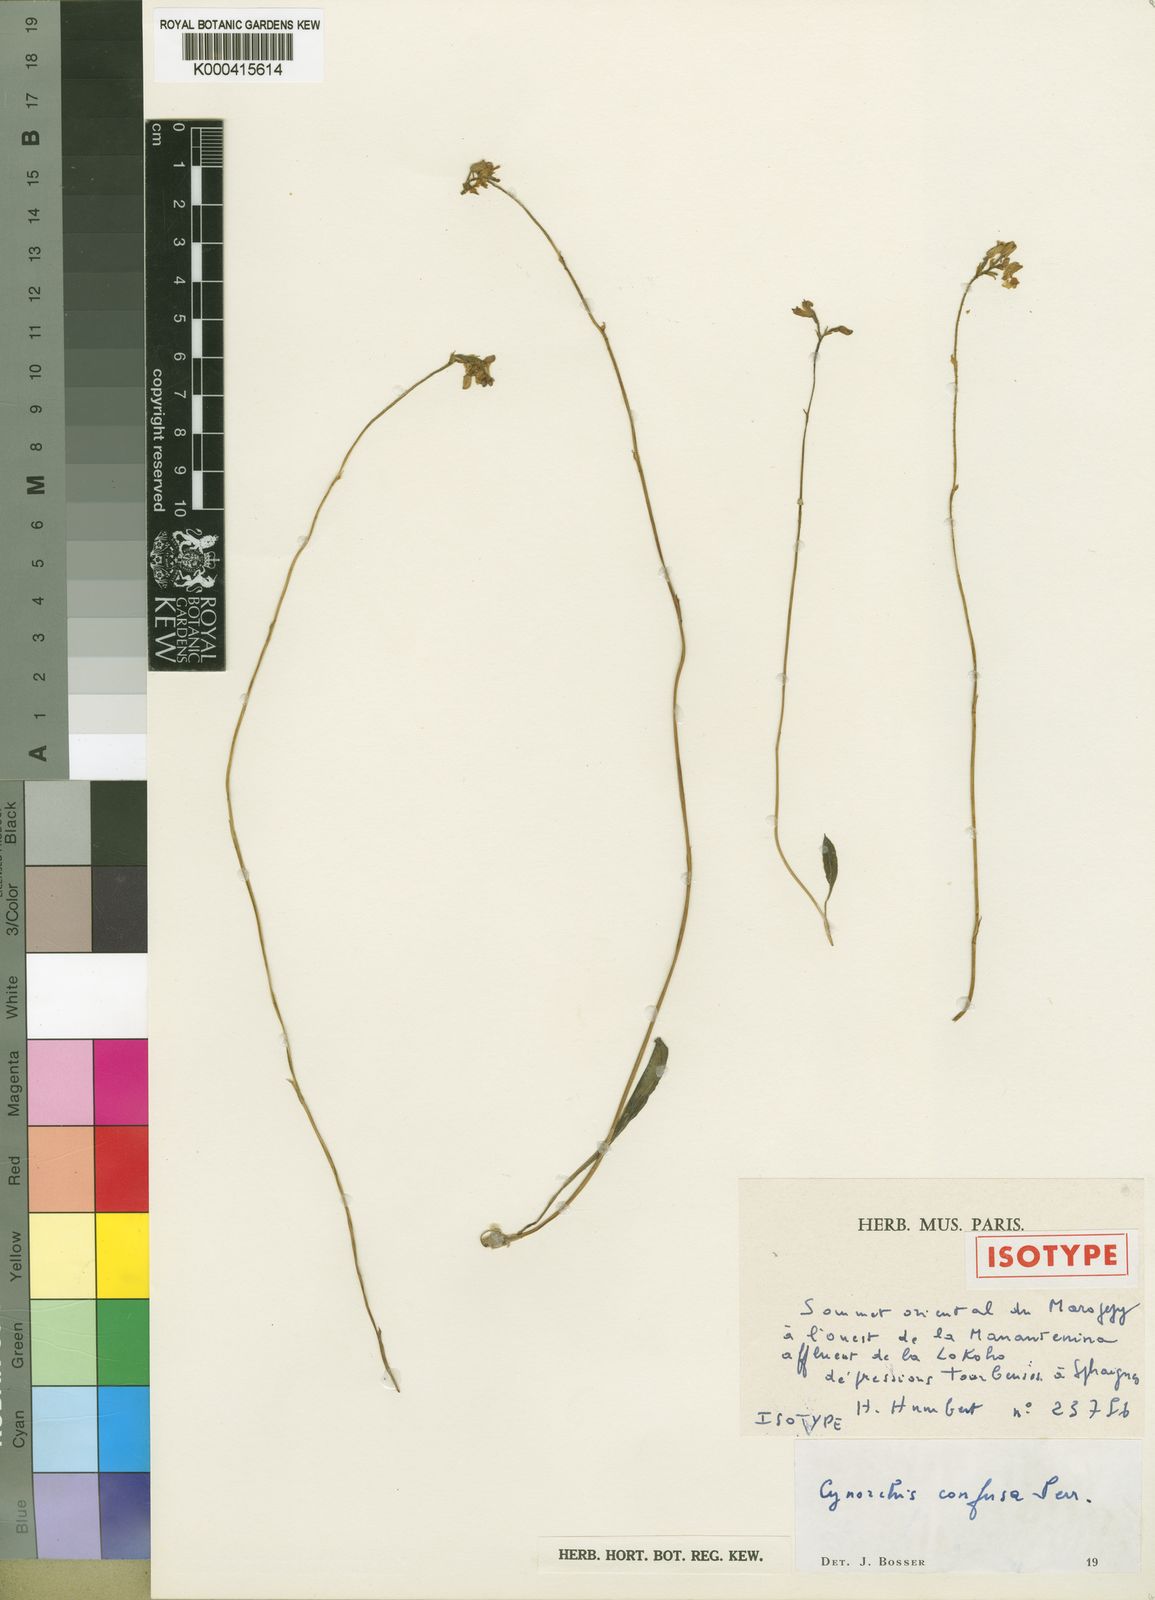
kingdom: Plantae
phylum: Tracheophyta
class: Liliopsida
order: Asparagales
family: Orchidaceae
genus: Cynorkis
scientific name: Cynorkis confusa
